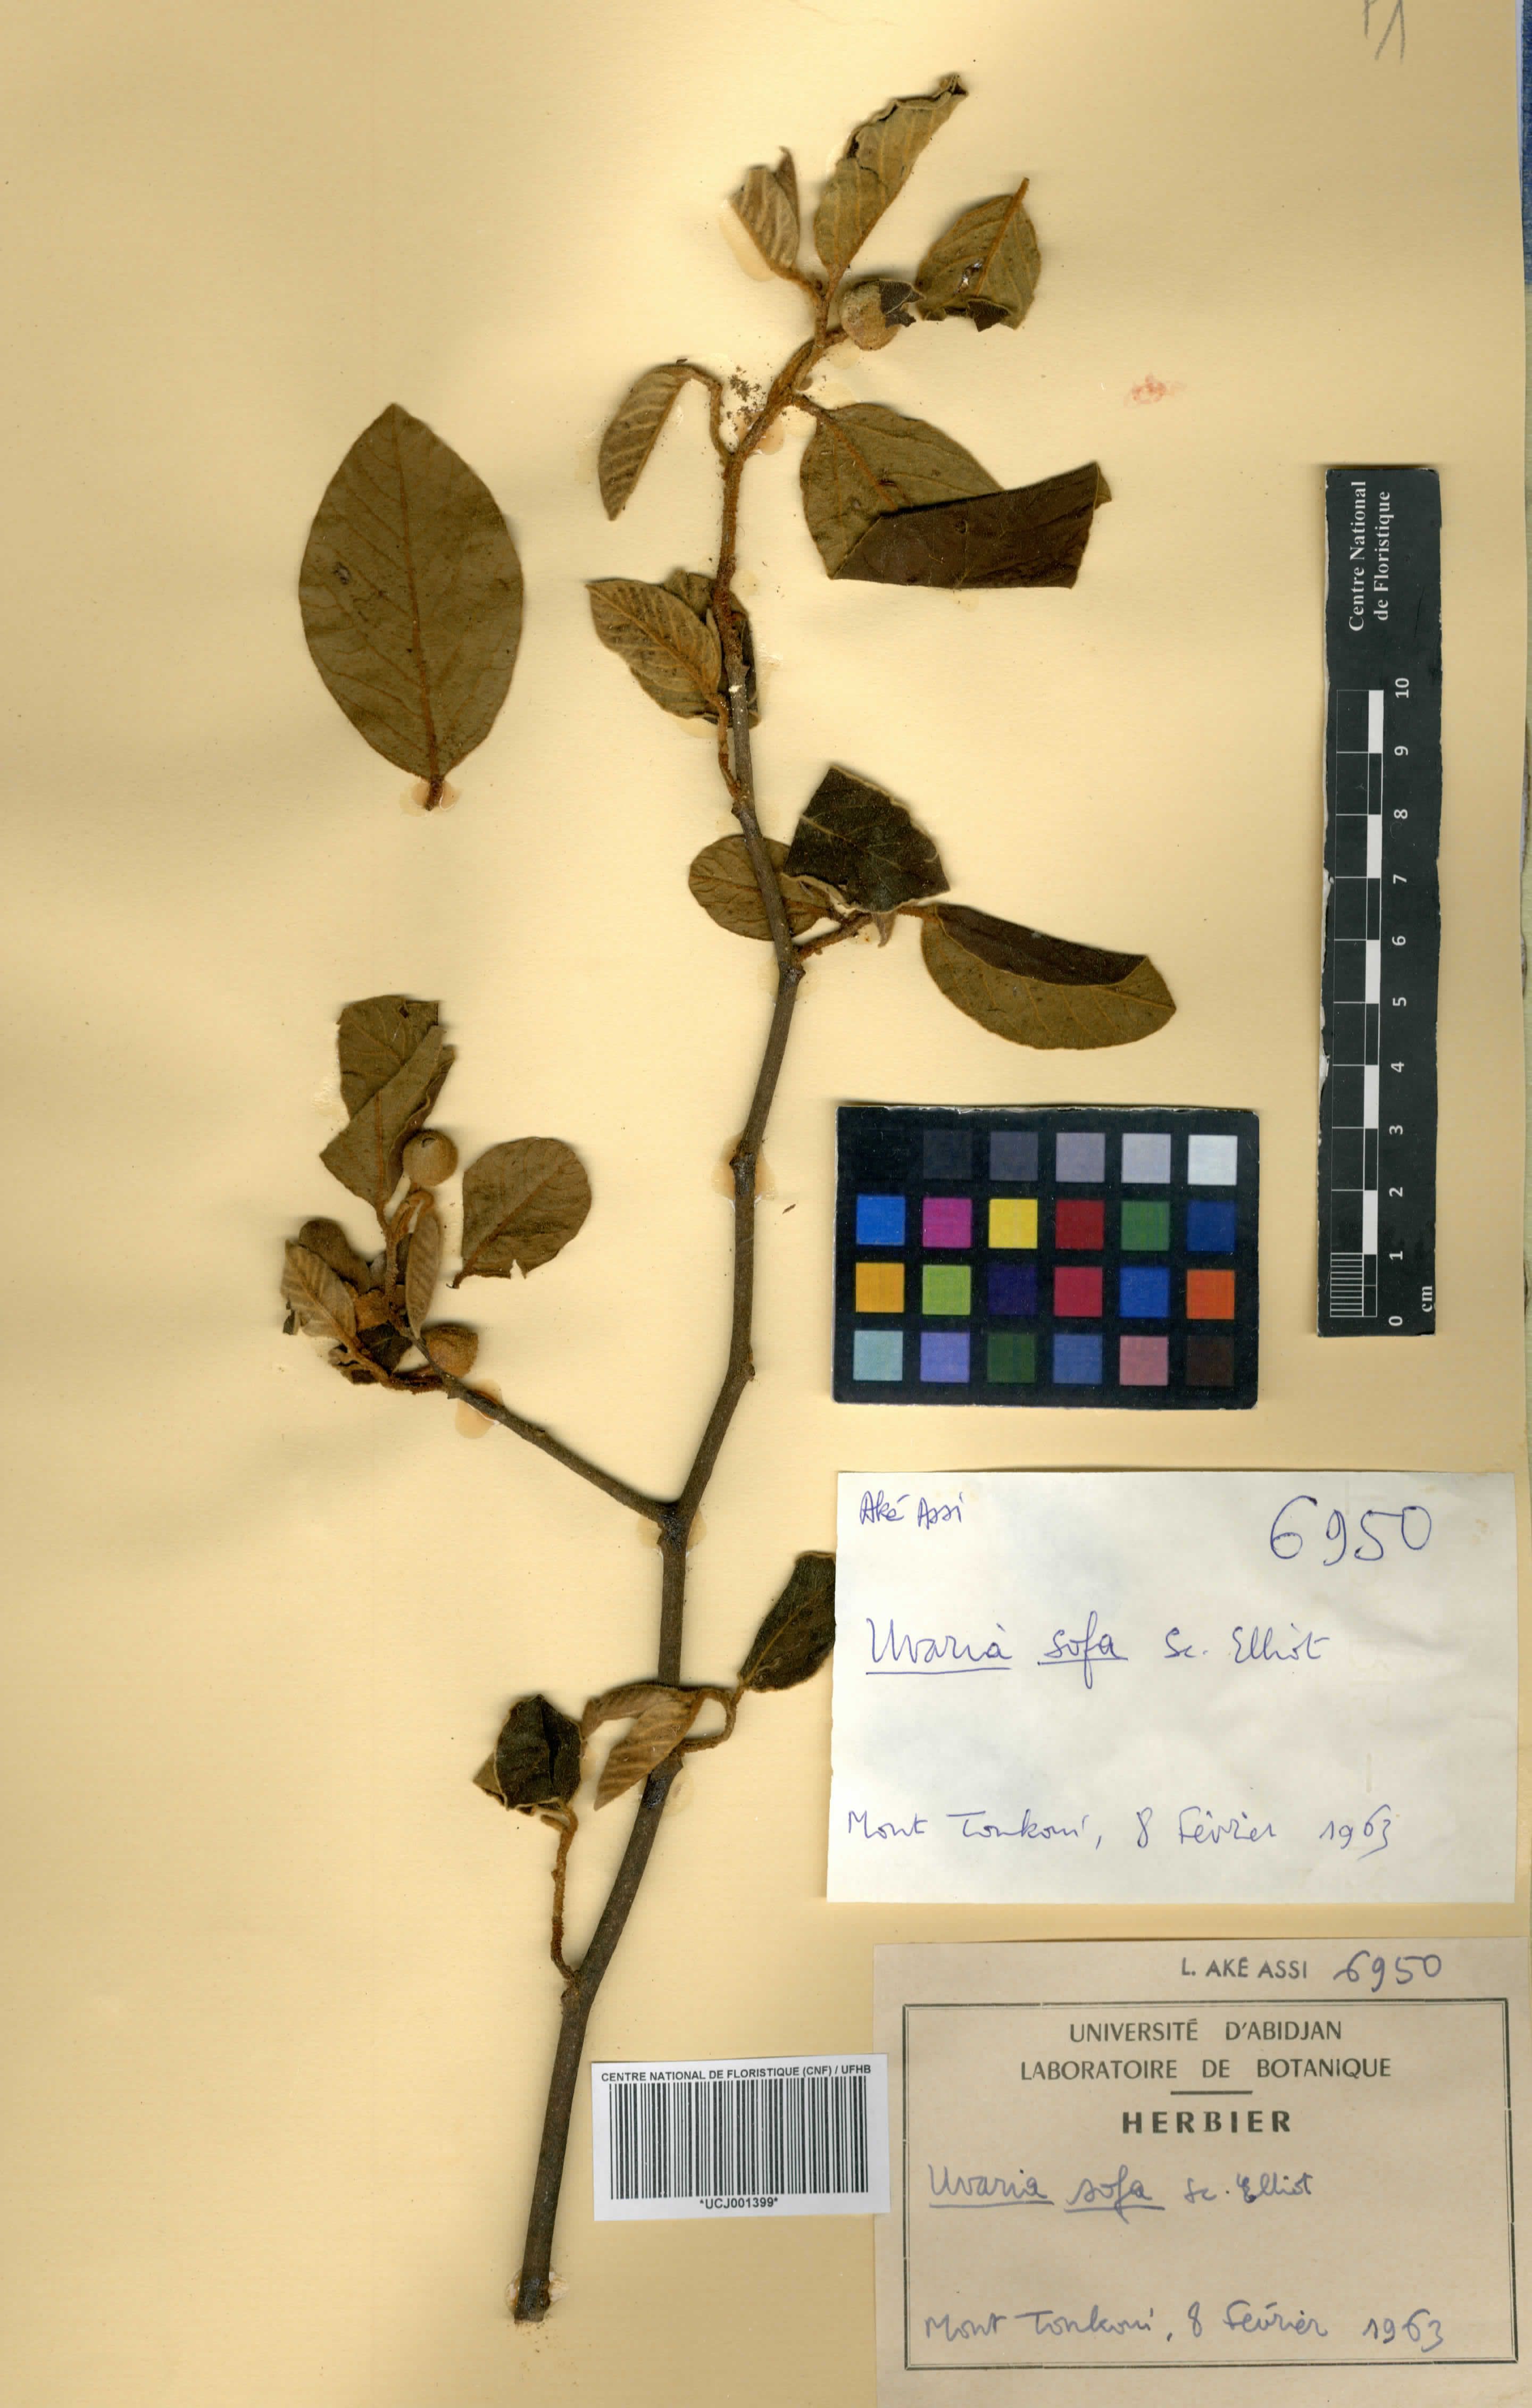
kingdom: Plantae
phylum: Tracheophyta
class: Magnoliopsida
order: Magnoliales
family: Annonaceae
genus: Uvaria
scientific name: Uvaria sofa
